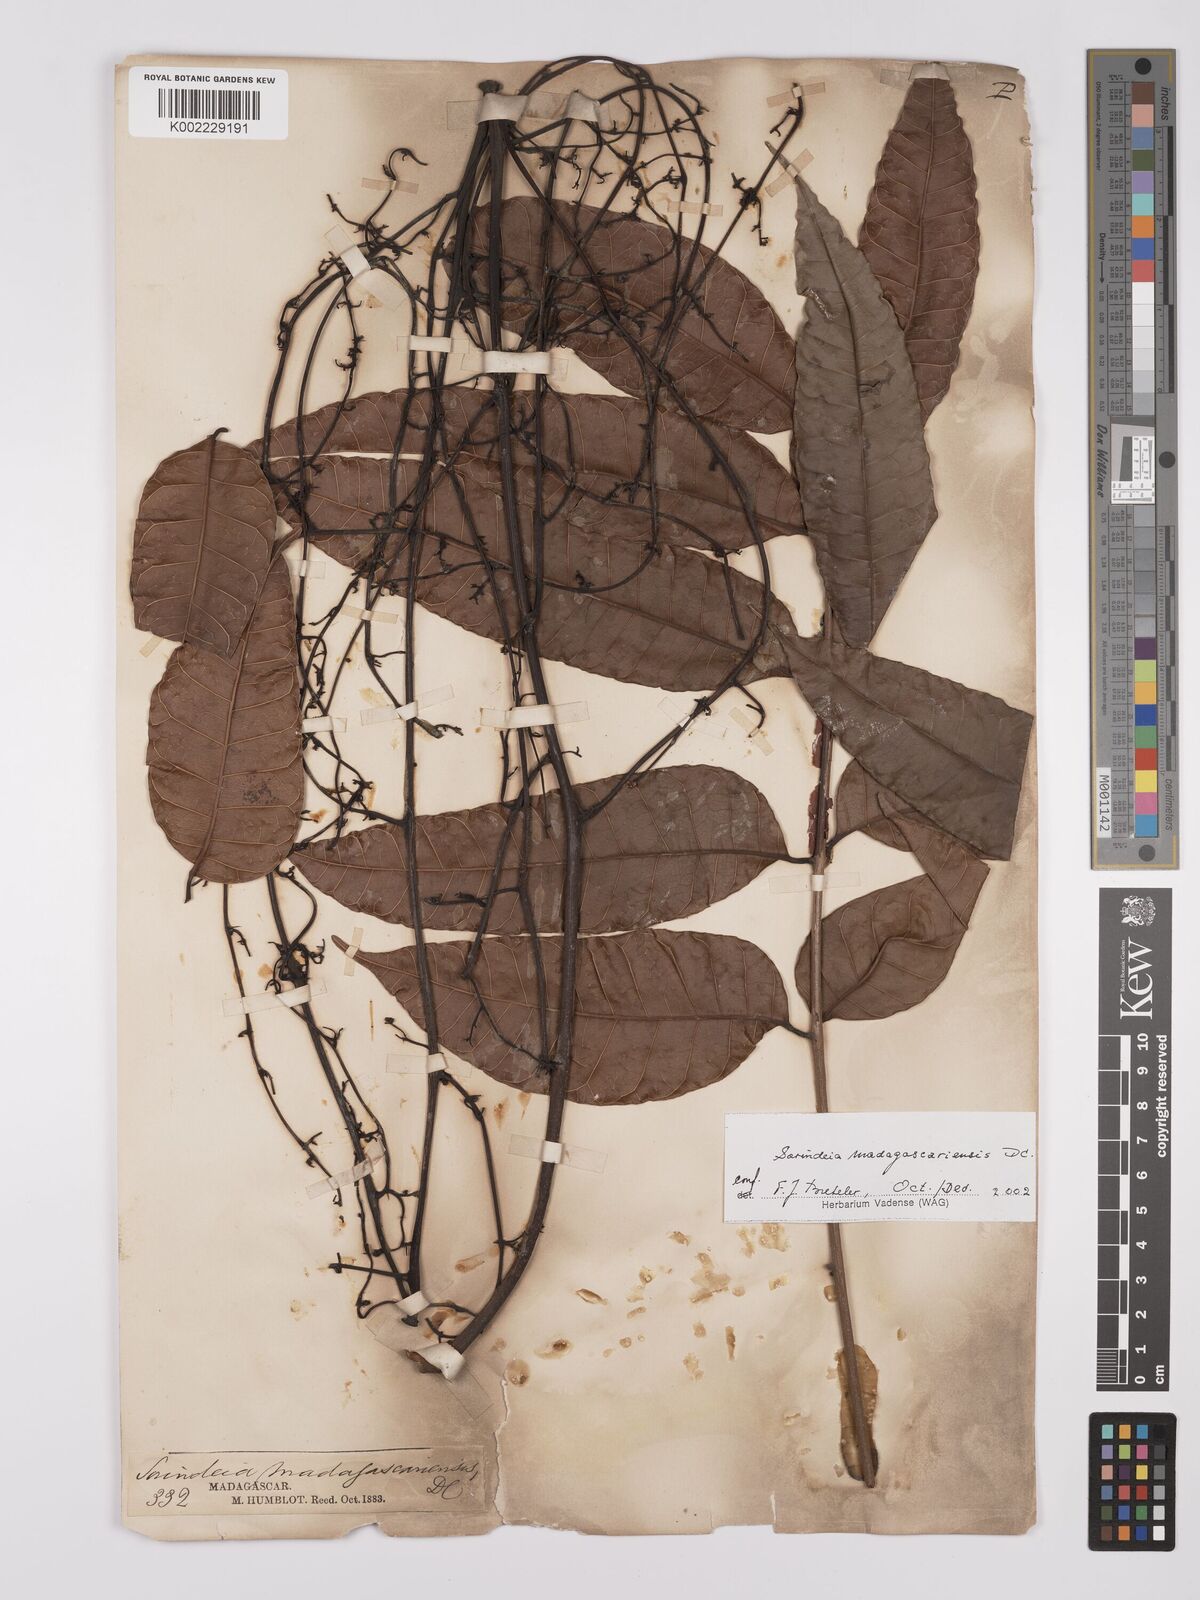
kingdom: Plantae
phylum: Tracheophyta
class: Magnoliopsida
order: Sapindales
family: Anacardiaceae
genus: Sorindeia
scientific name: Sorindeia madagascariensis
